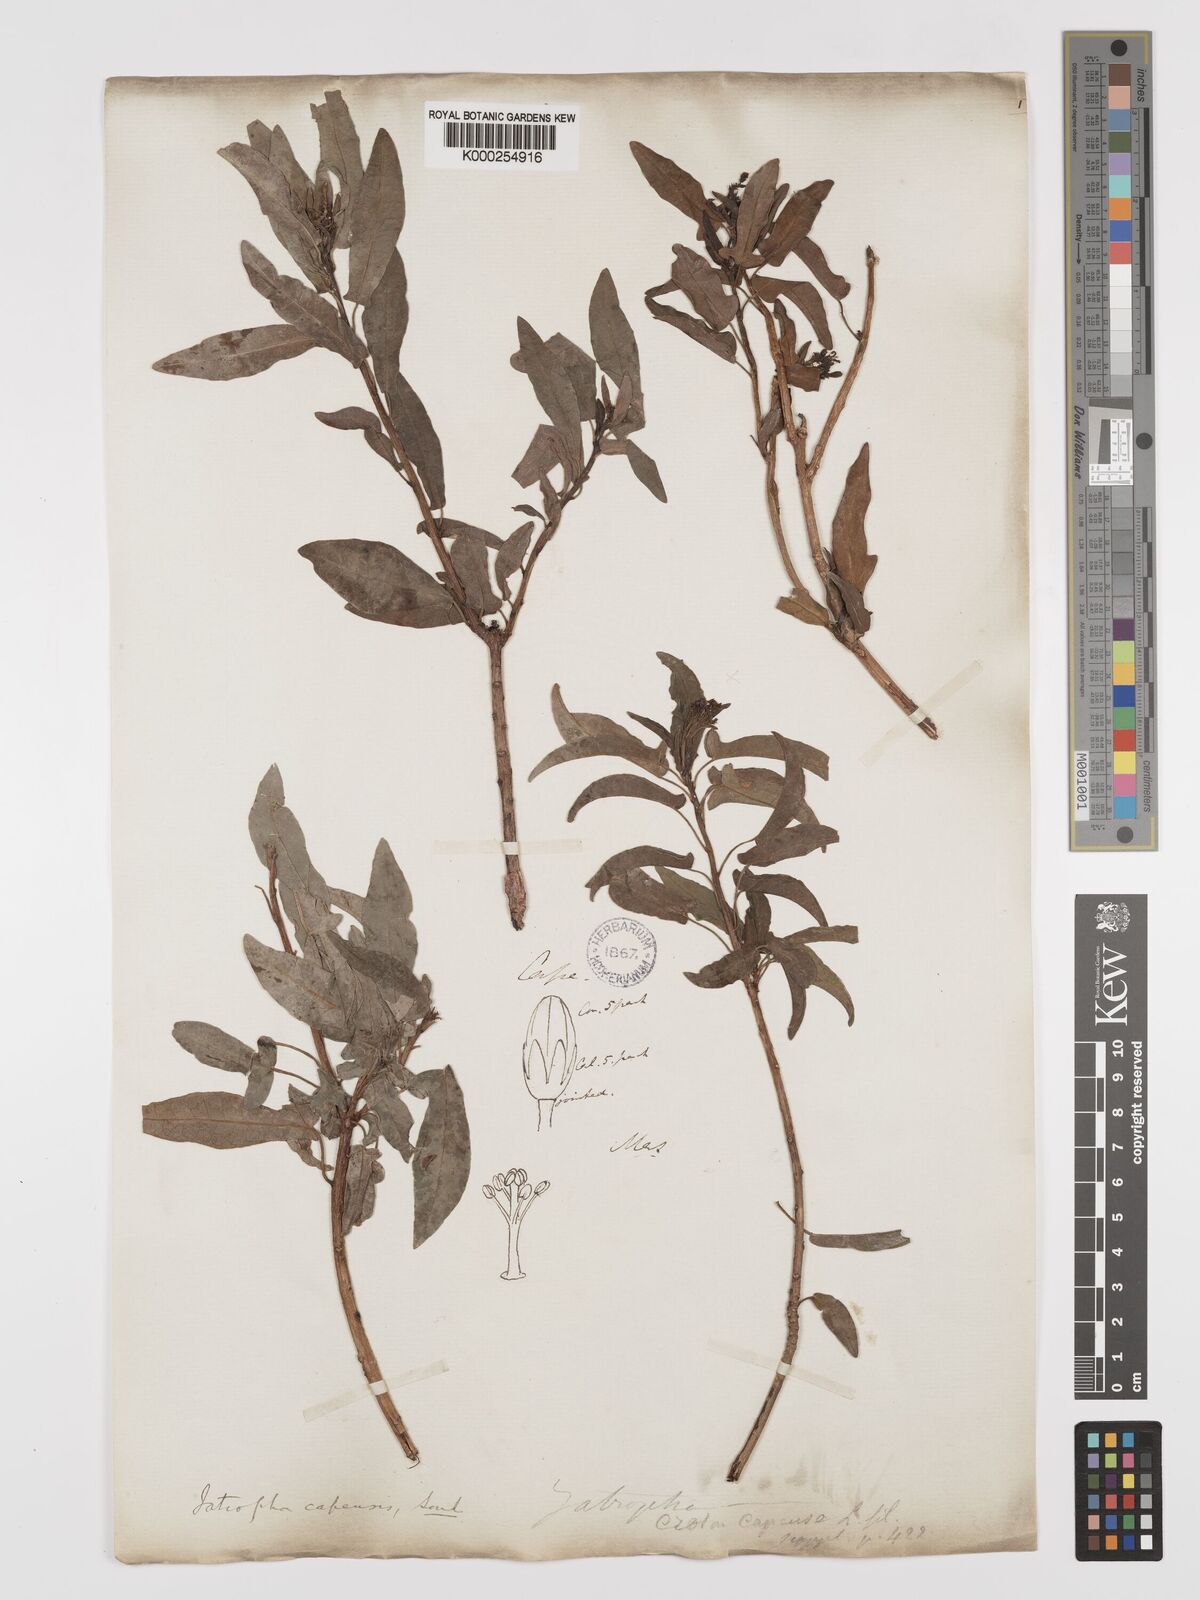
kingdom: Plantae
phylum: Tracheophyta
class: Magnoliopsida
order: Malpighiales
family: Euphorbiaceae
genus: Jatropha
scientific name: Jatropha capensis
